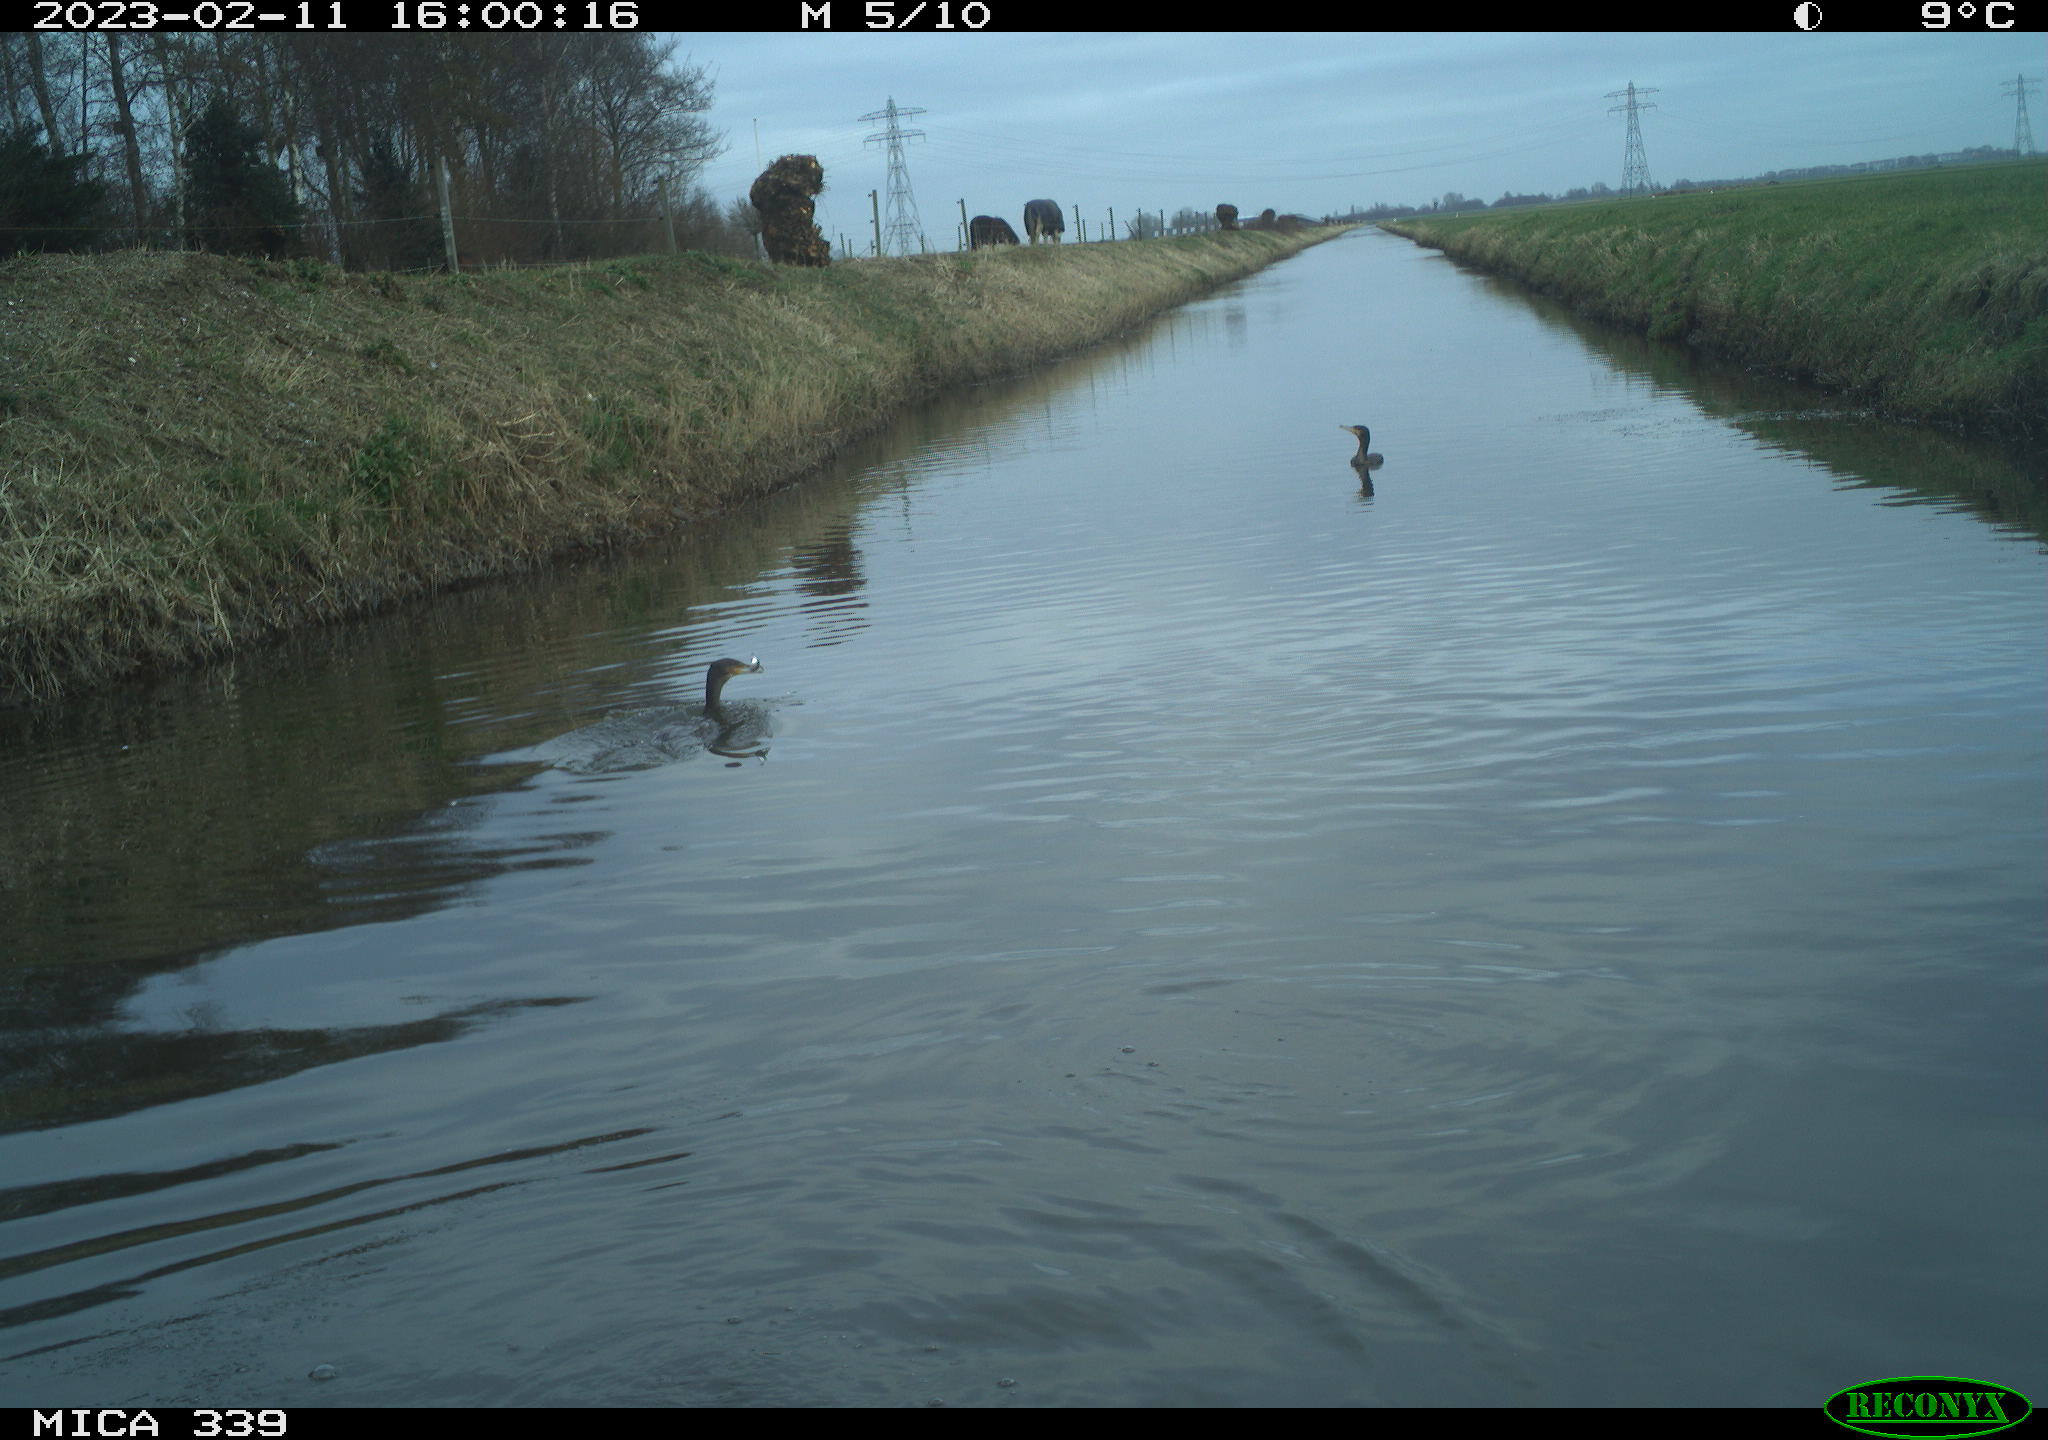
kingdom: Animalia
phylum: Chordata
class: Aves
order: Pelecaniformes
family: Ardeidae
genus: Ardea
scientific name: Ardea cinerea
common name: Grey heron
